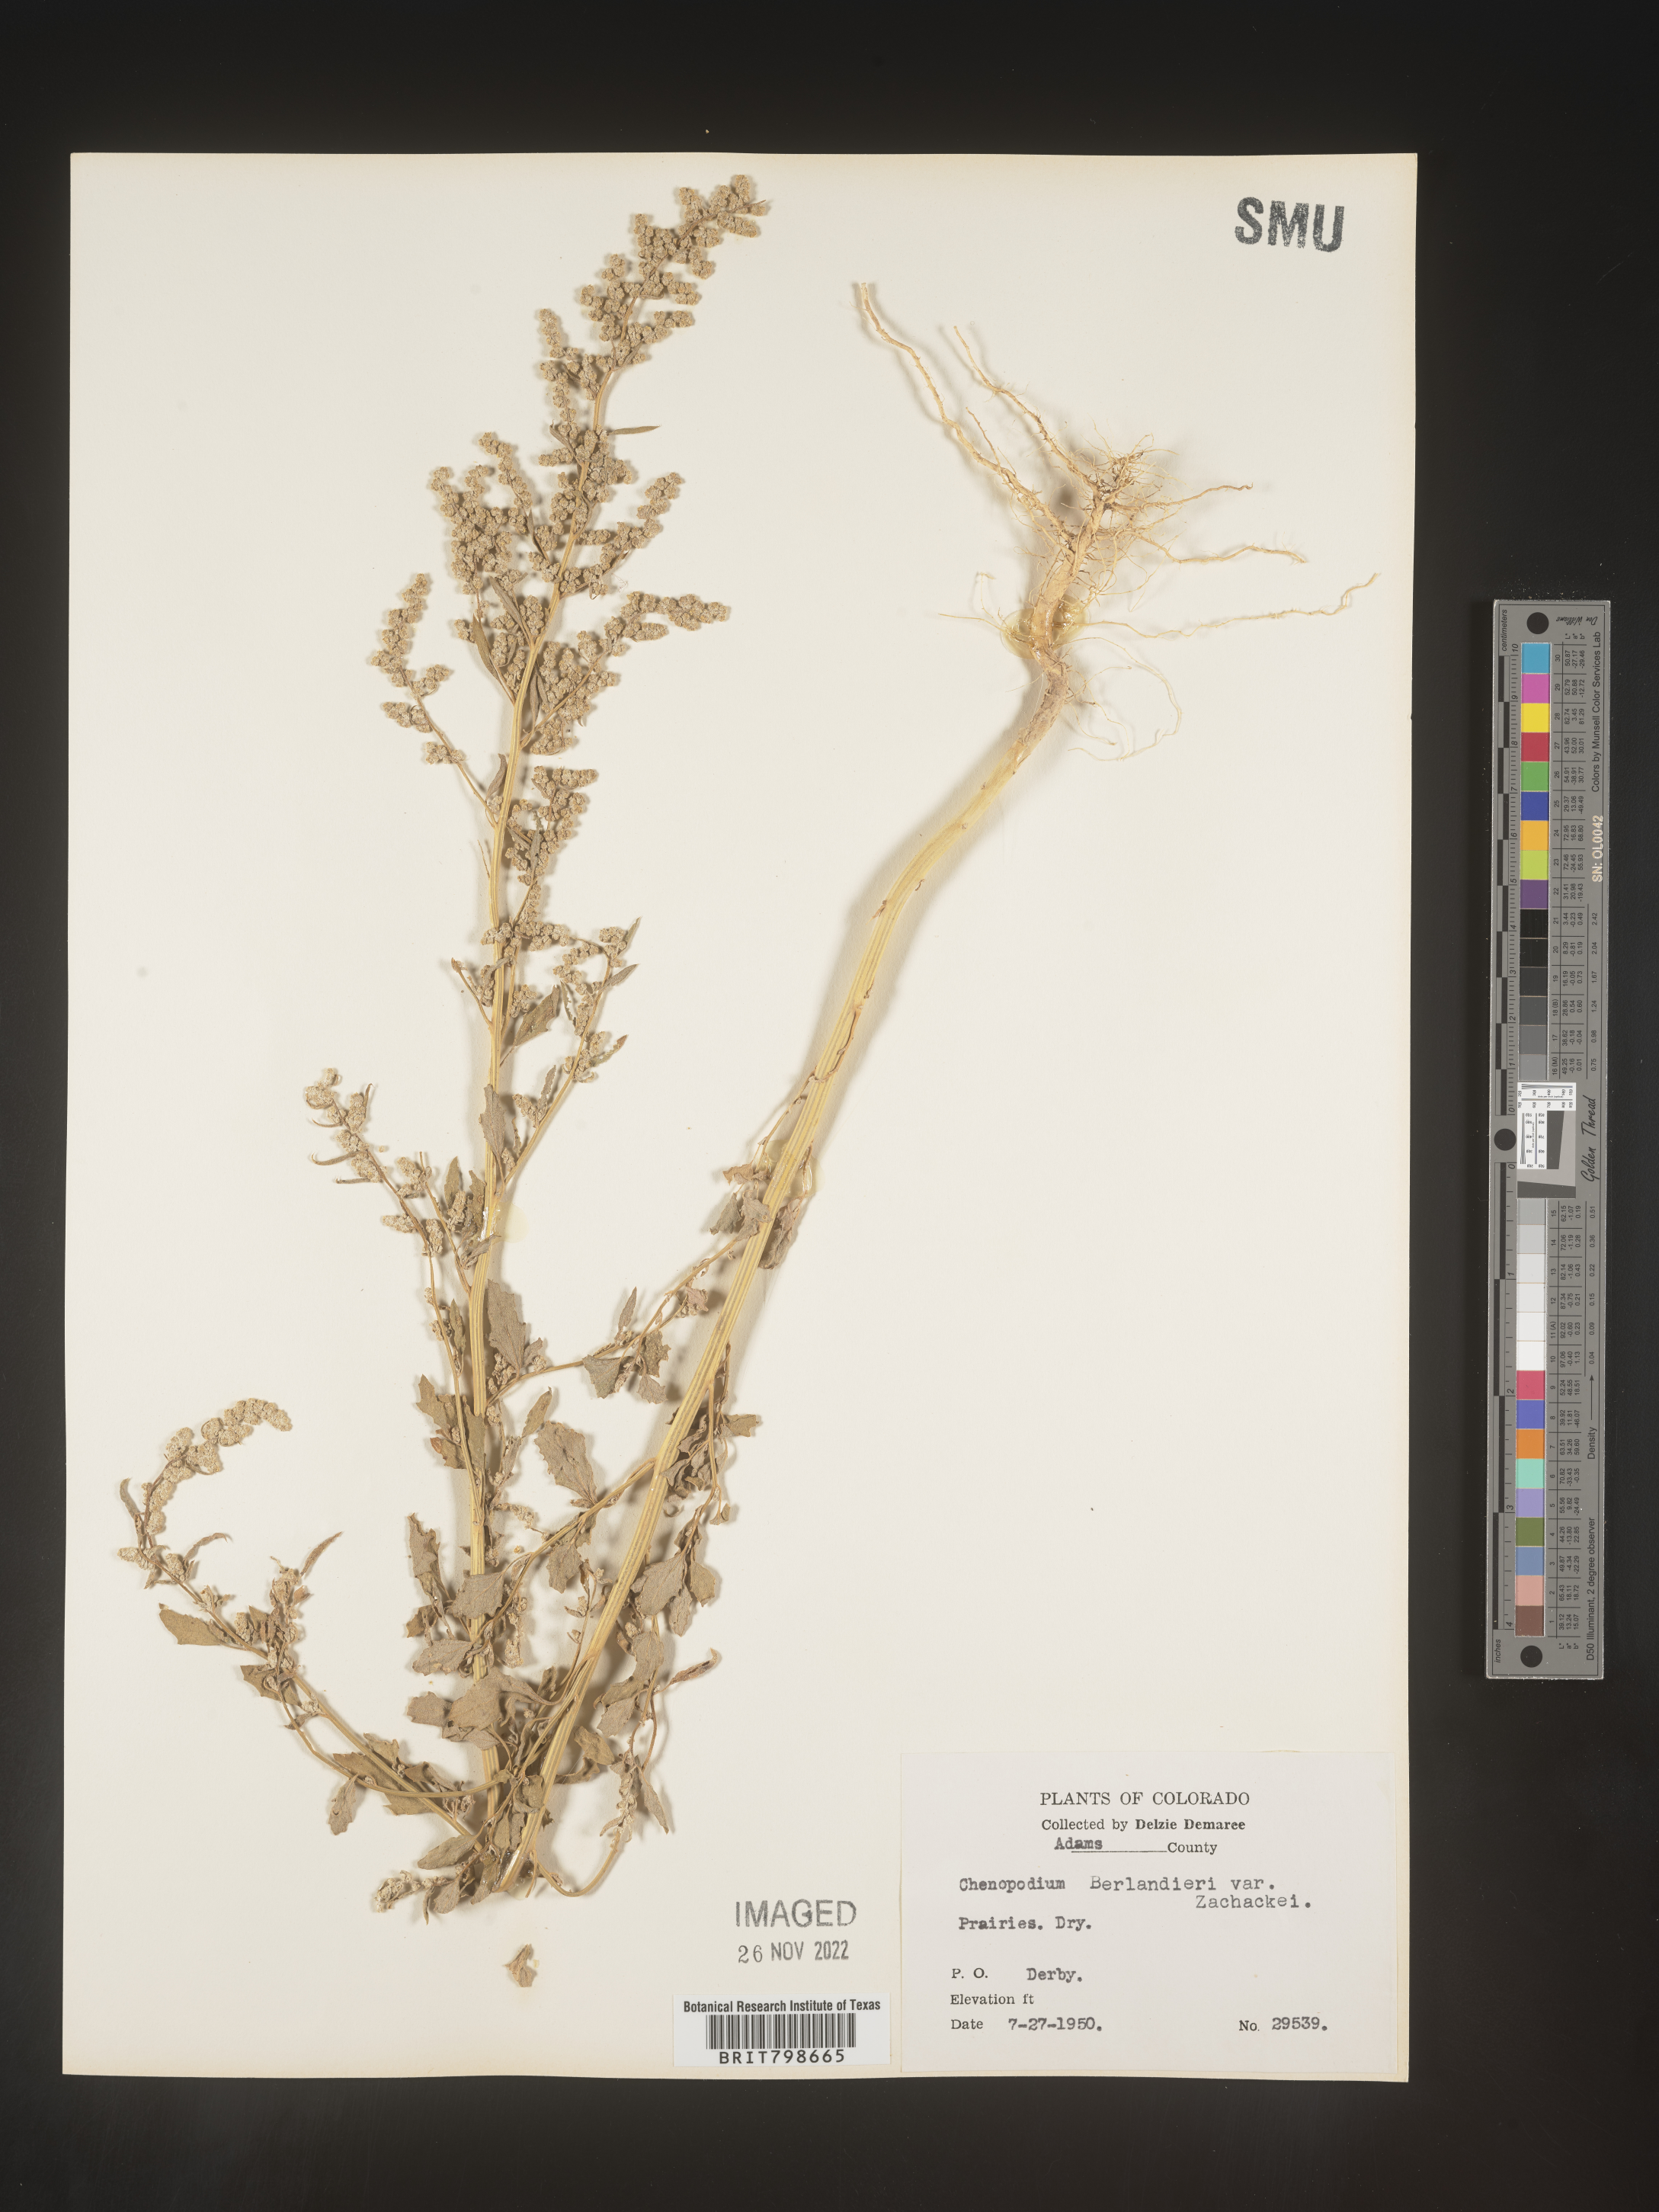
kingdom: Plantae
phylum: Tracheophyta
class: Magnoliopsida
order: Caryophyllales
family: Amaranthaceae
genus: Chenopodium
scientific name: Chenopodium berlandieri
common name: Pit-seed goosefoot
